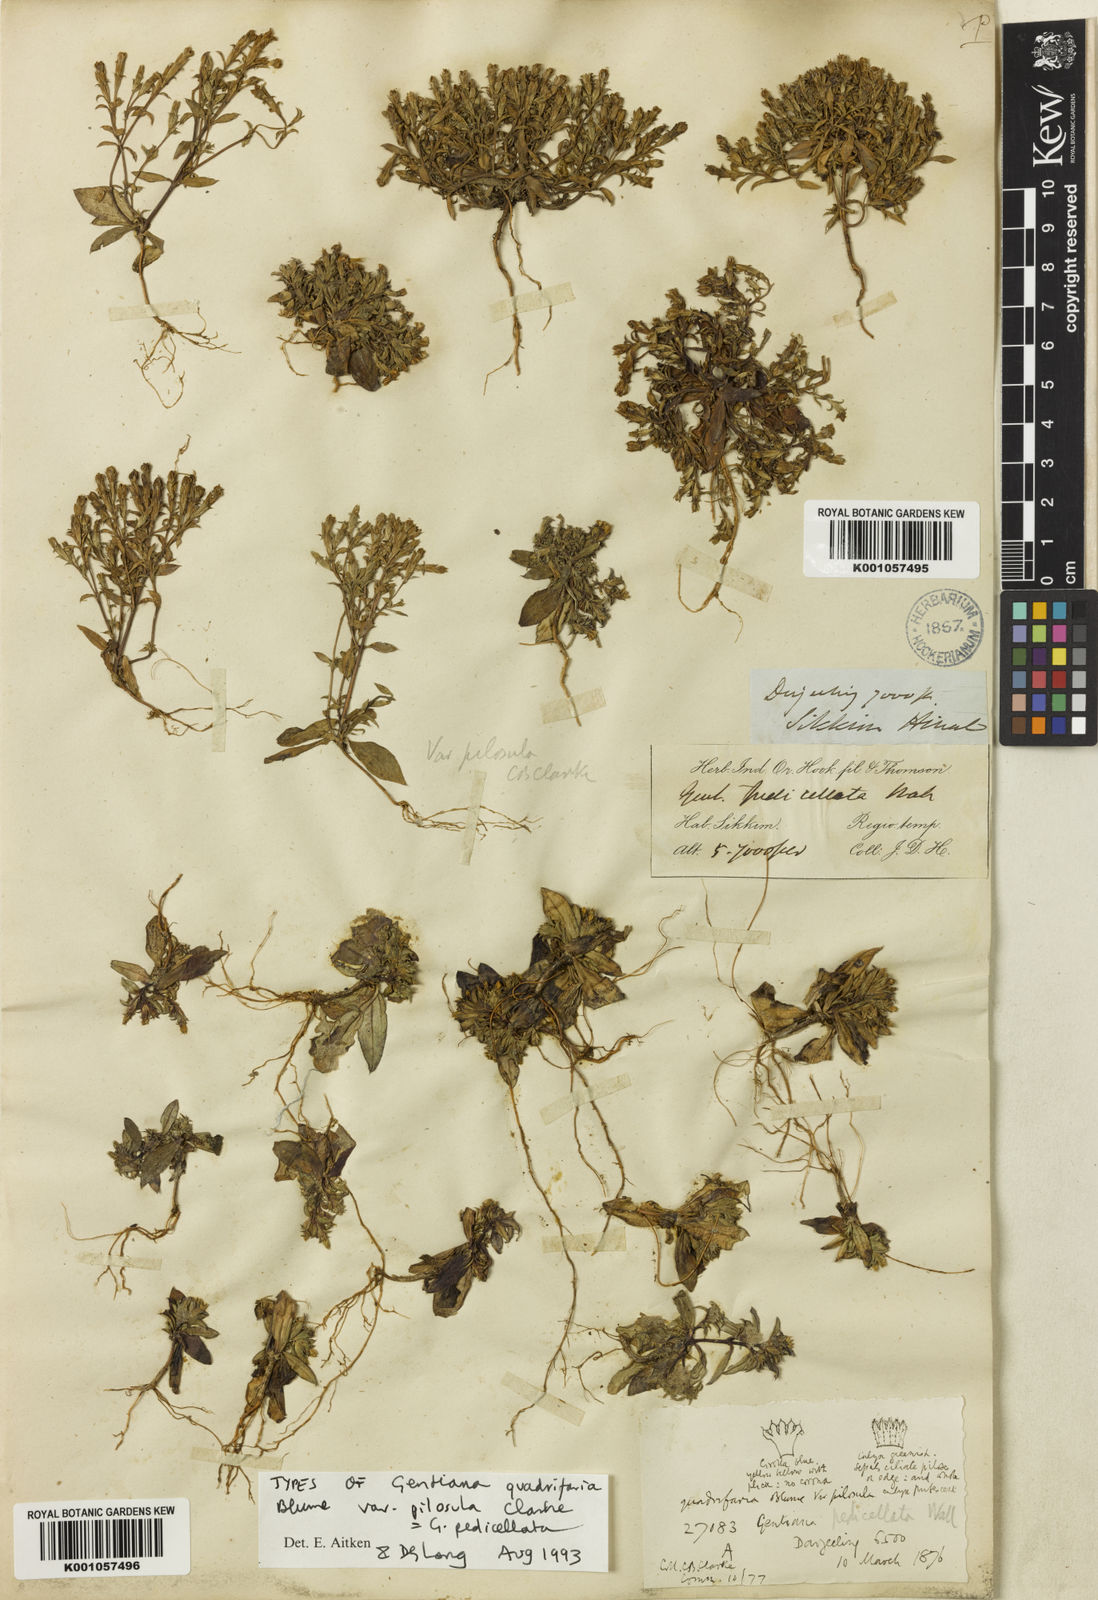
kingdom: Plantae
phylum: Tracheophyta
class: Magnoliopsida
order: Gentianales
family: Gentianaceae
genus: Gentiana
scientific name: Gentiana quadrifaria
